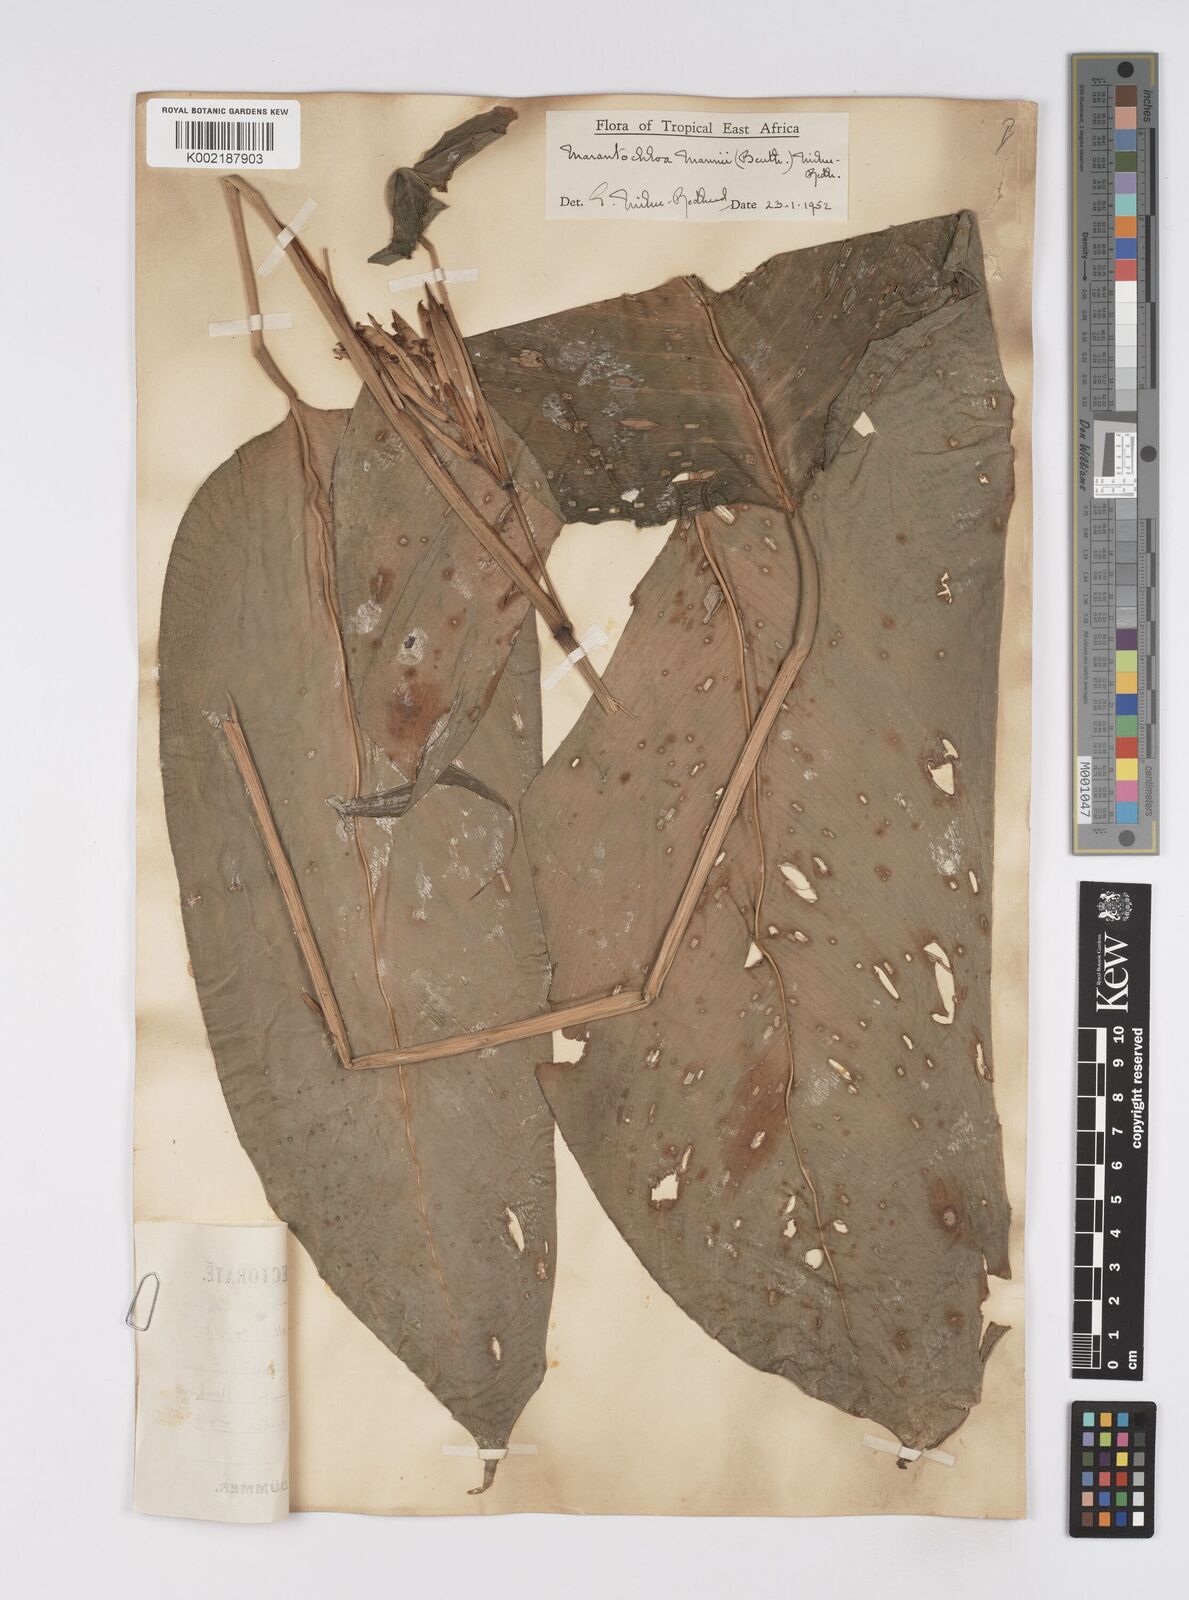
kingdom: Plantae
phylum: Tracheophyta
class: Liliopsida
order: Zingiberales
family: Marantaceae
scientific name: Marantaceae
